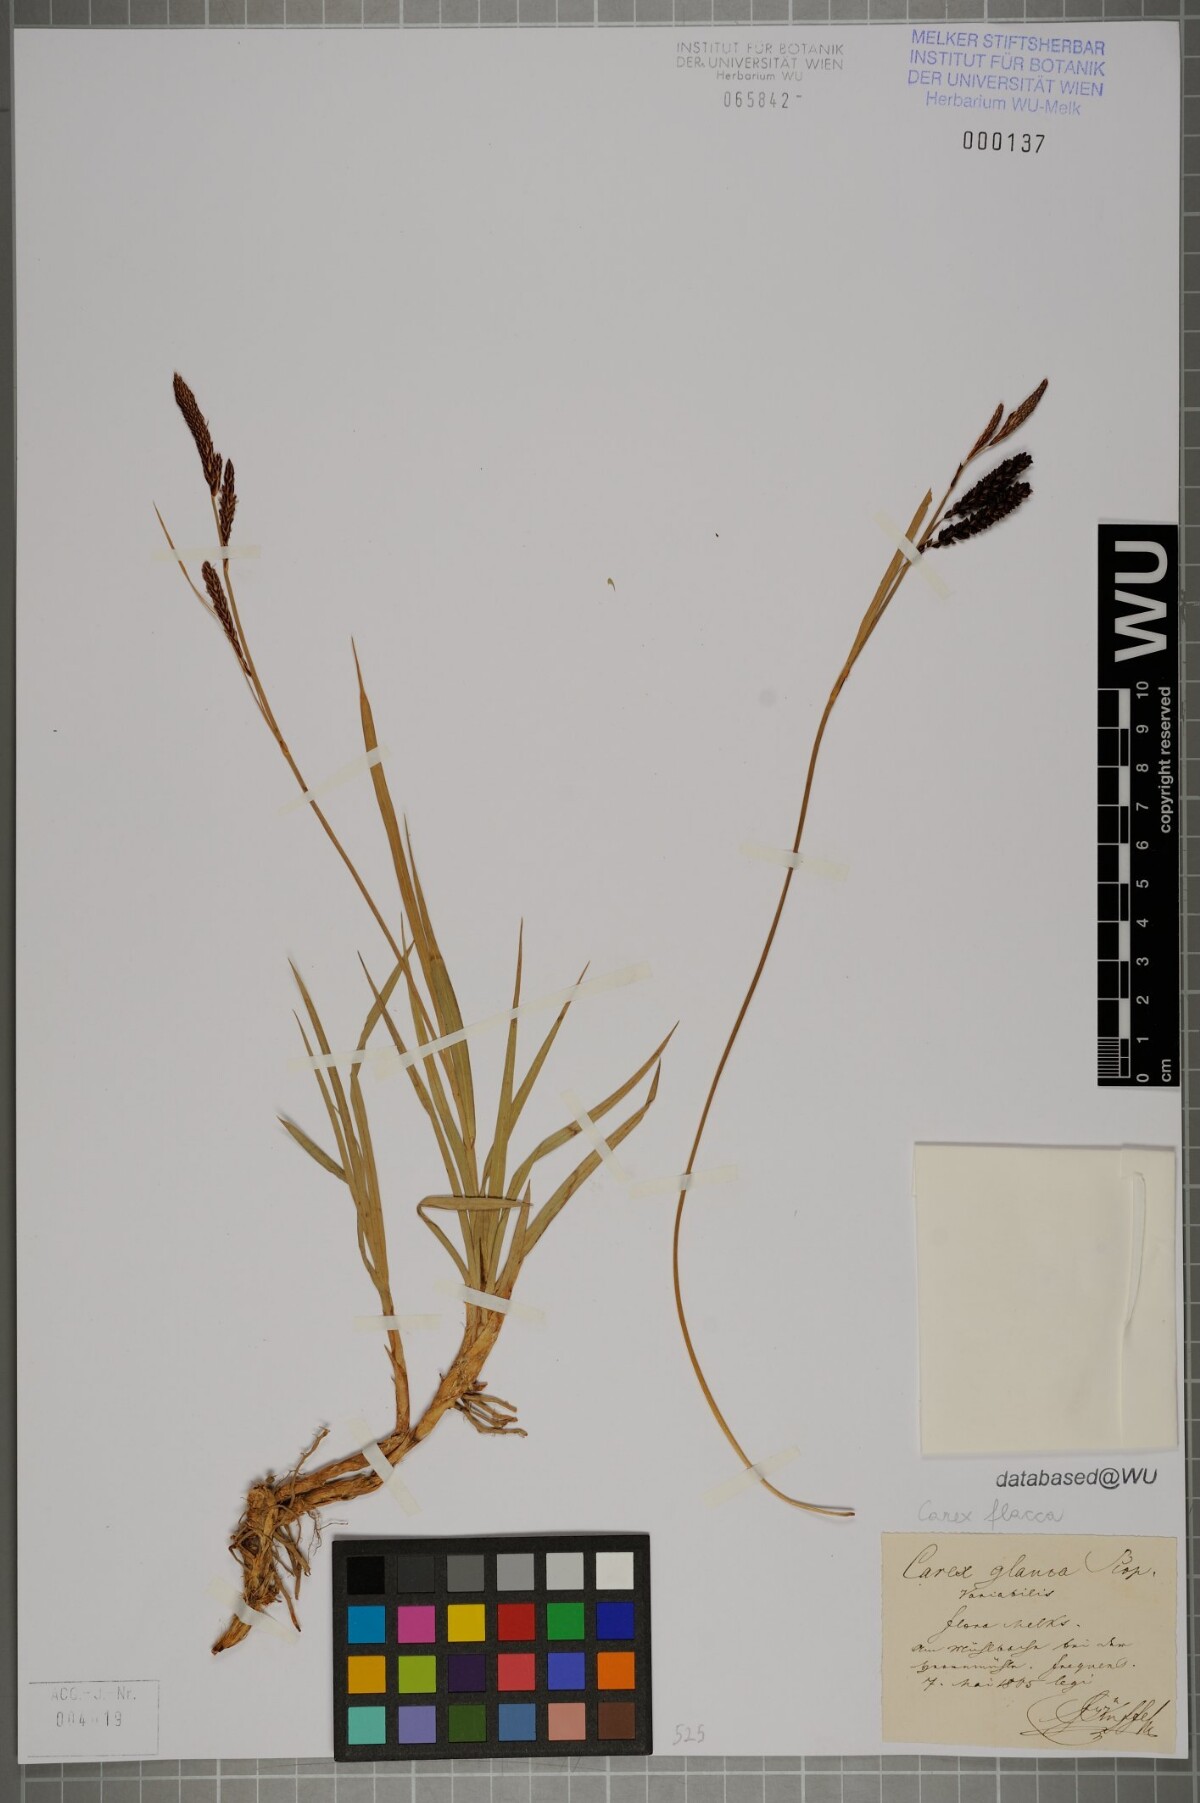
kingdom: Plantae
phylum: Tracheophyta
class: Liliopsida
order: Poales
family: Cyperaceae
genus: Carex
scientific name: Carex flacca
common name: Glaucous sedge
